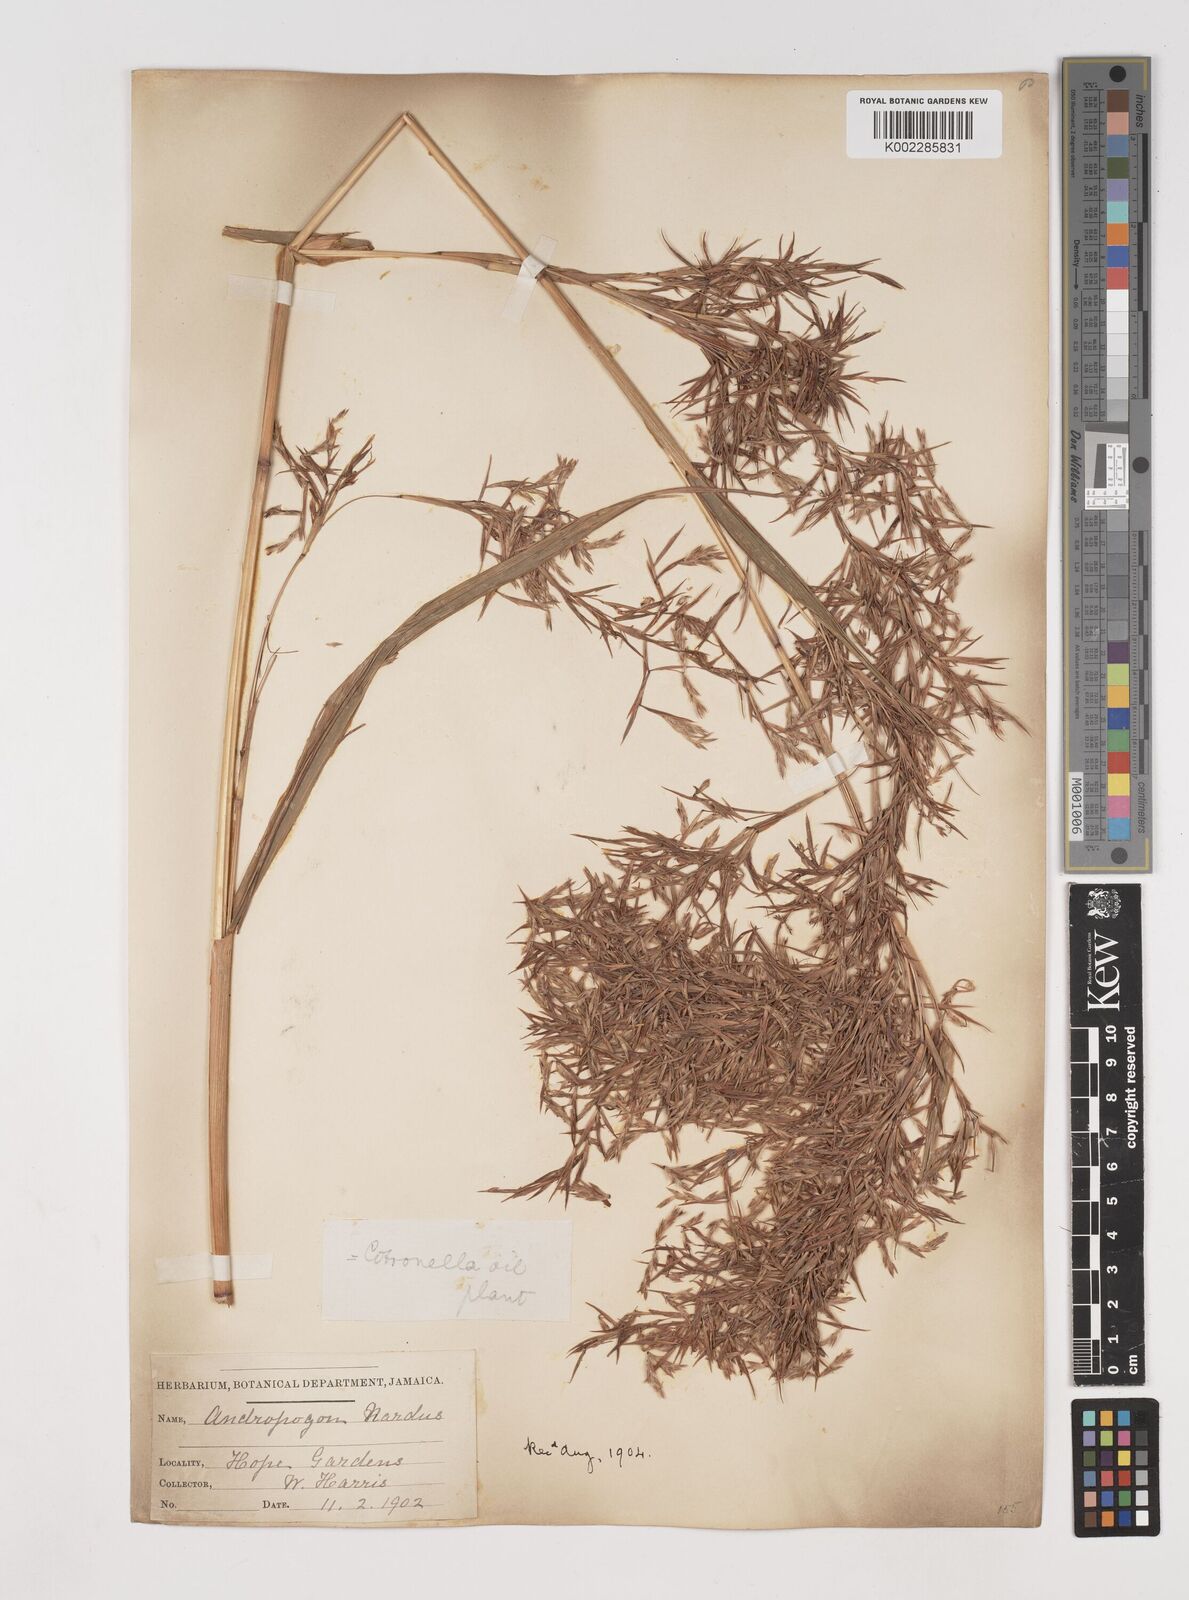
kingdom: Plantae
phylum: Tracheophyta
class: Liliopsida
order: Poales
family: Poaceae
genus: Cymbopogon
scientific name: Cymbopogon winterianus
